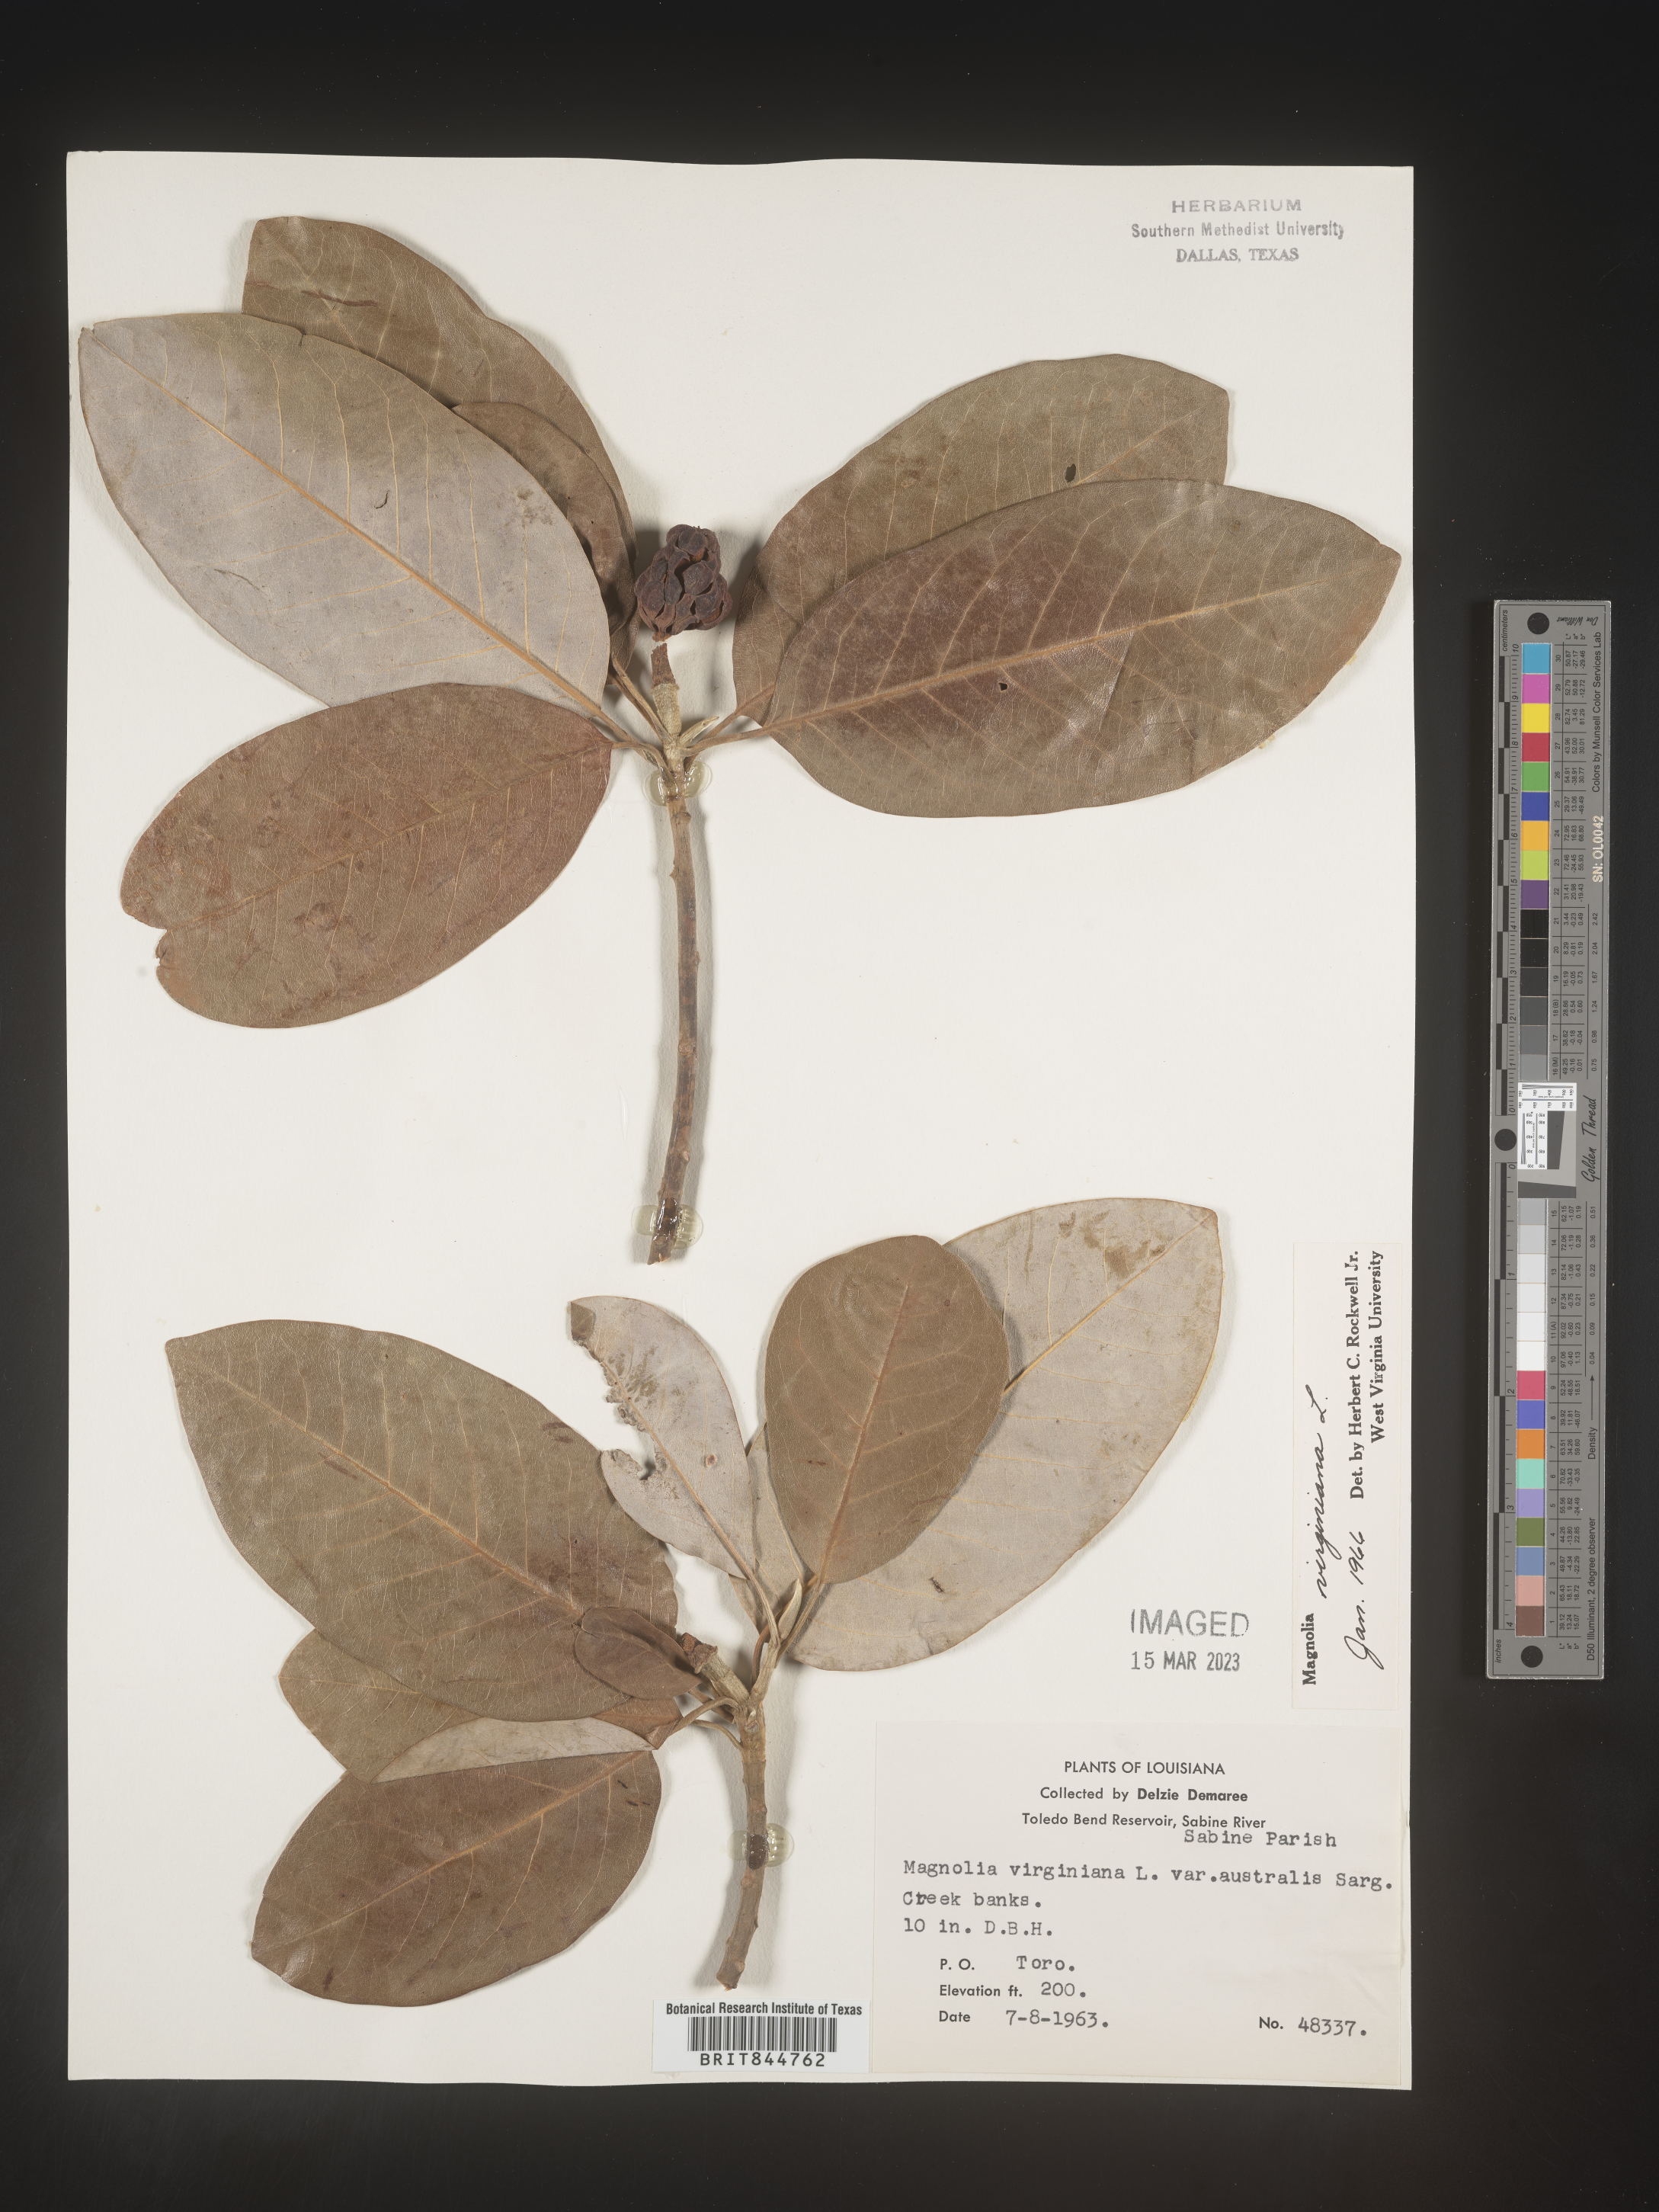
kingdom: Plantae
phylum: Tracheophyta
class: Magnoliopsida
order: Magnoliales
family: Magnoliaceae
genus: Magnolia
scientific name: Magnolia virginiana
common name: Swamp bay
